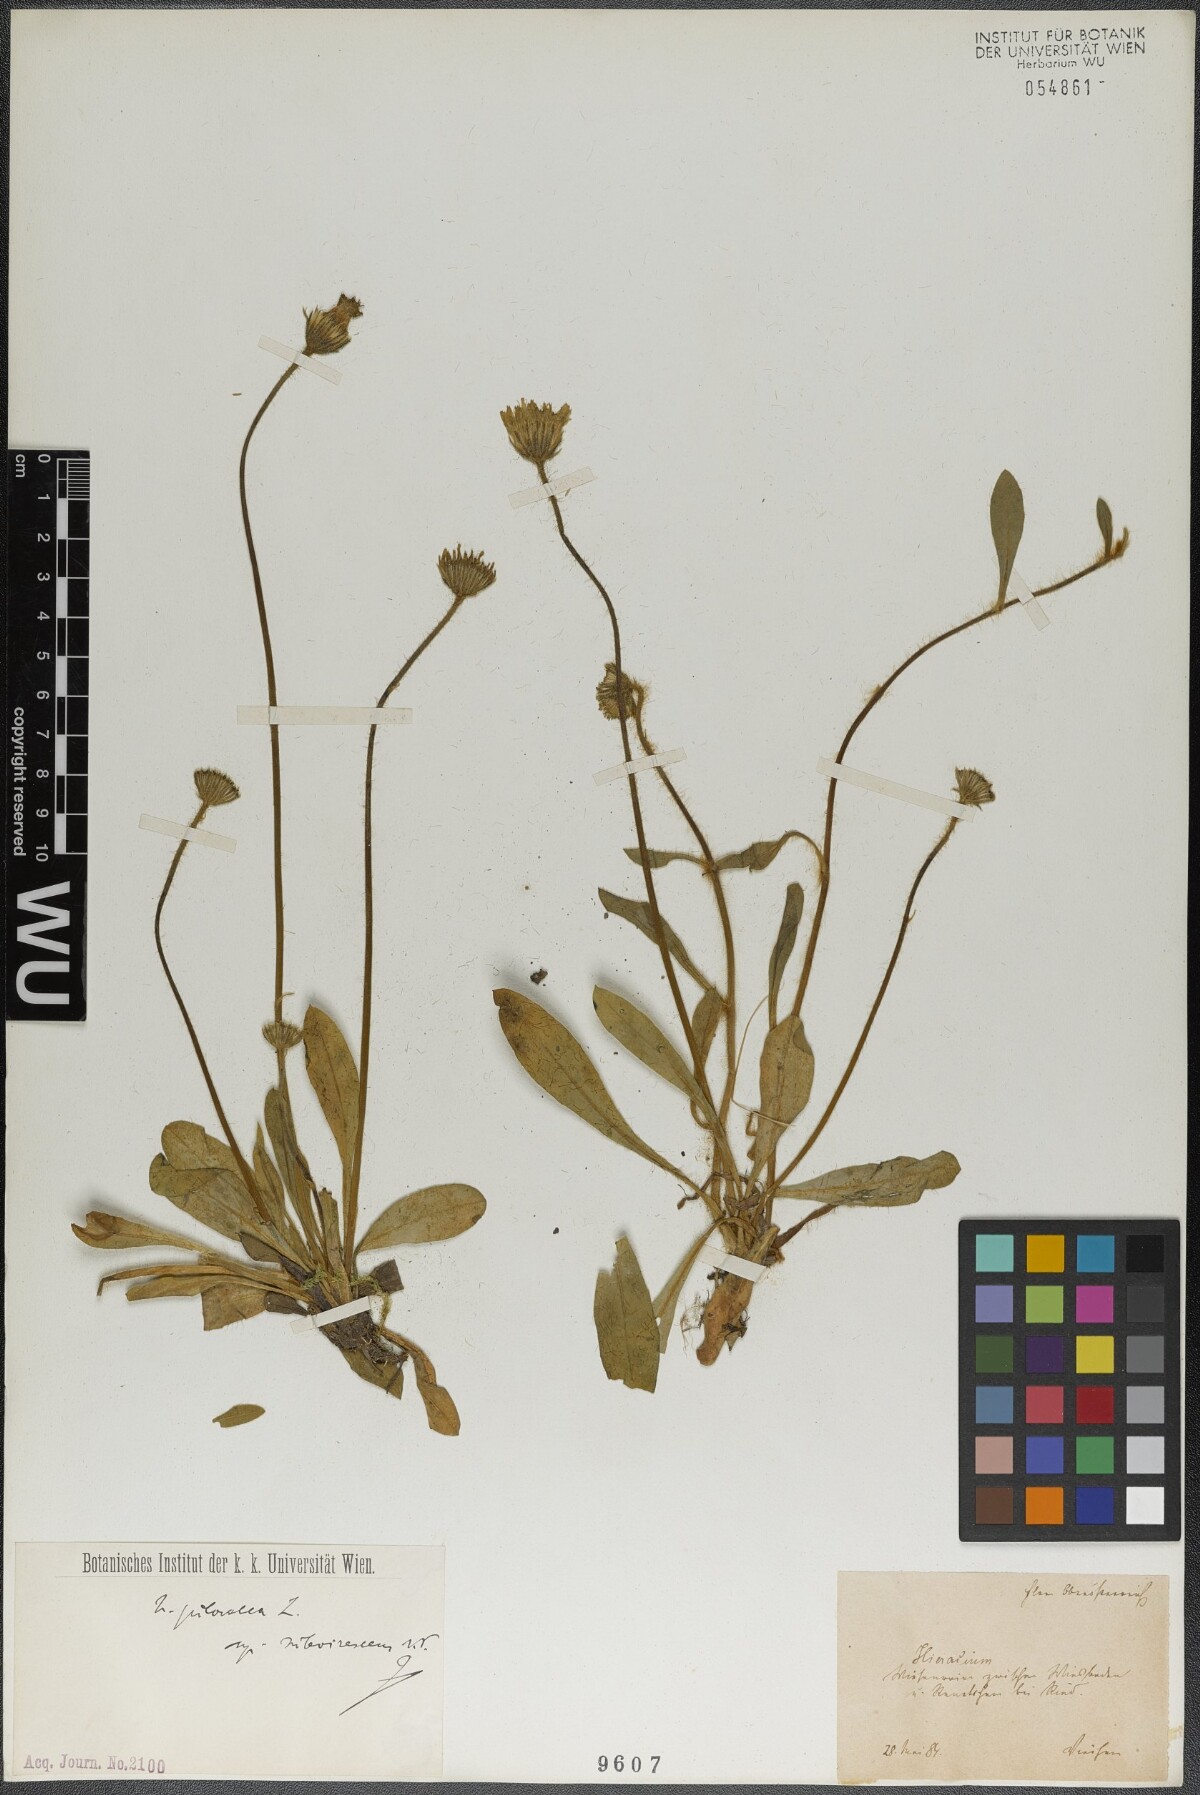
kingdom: Plantae
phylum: Tracheophyta
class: Magnoliopsida
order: Asterales
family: Asteraceae
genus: Pilosella
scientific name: Pilosella officinarum
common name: Mouse-ear hawkweed
